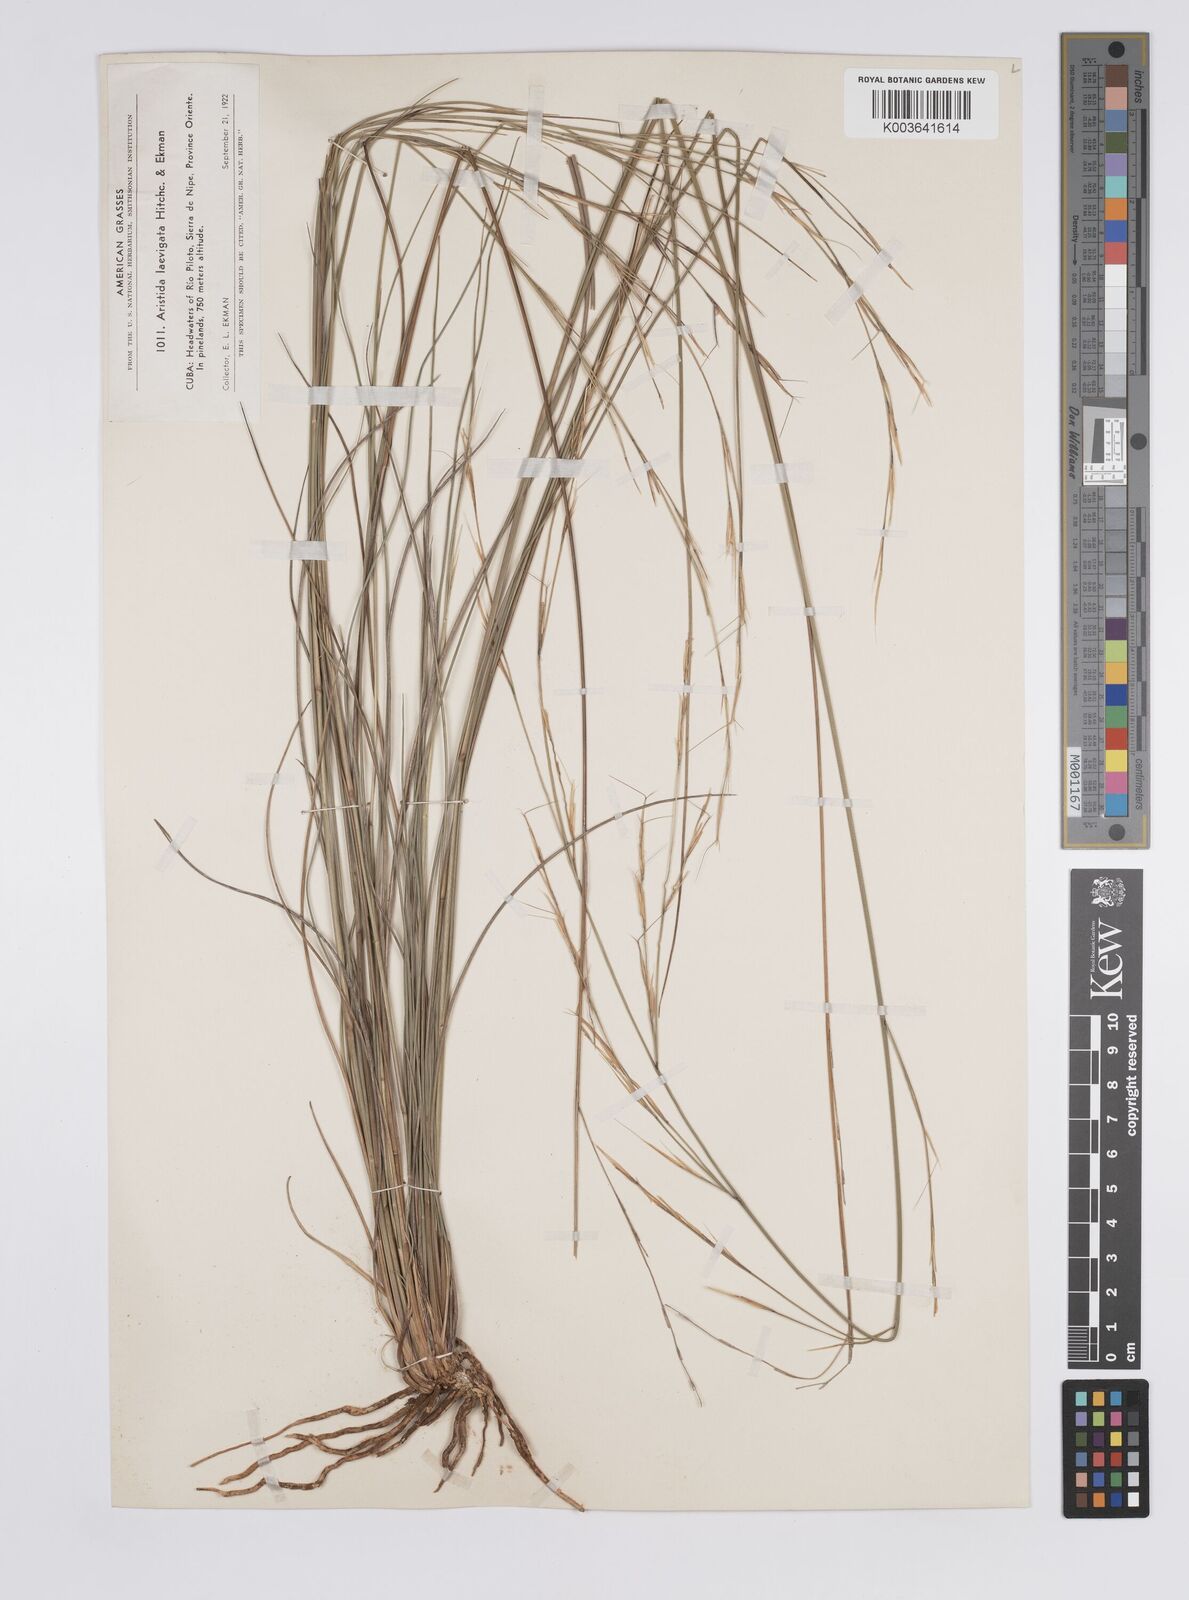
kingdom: Plantae
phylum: Tracheophyta
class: Liliopsida
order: Poales
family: Poaceae
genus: Aristida
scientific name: Aristida laevigata
